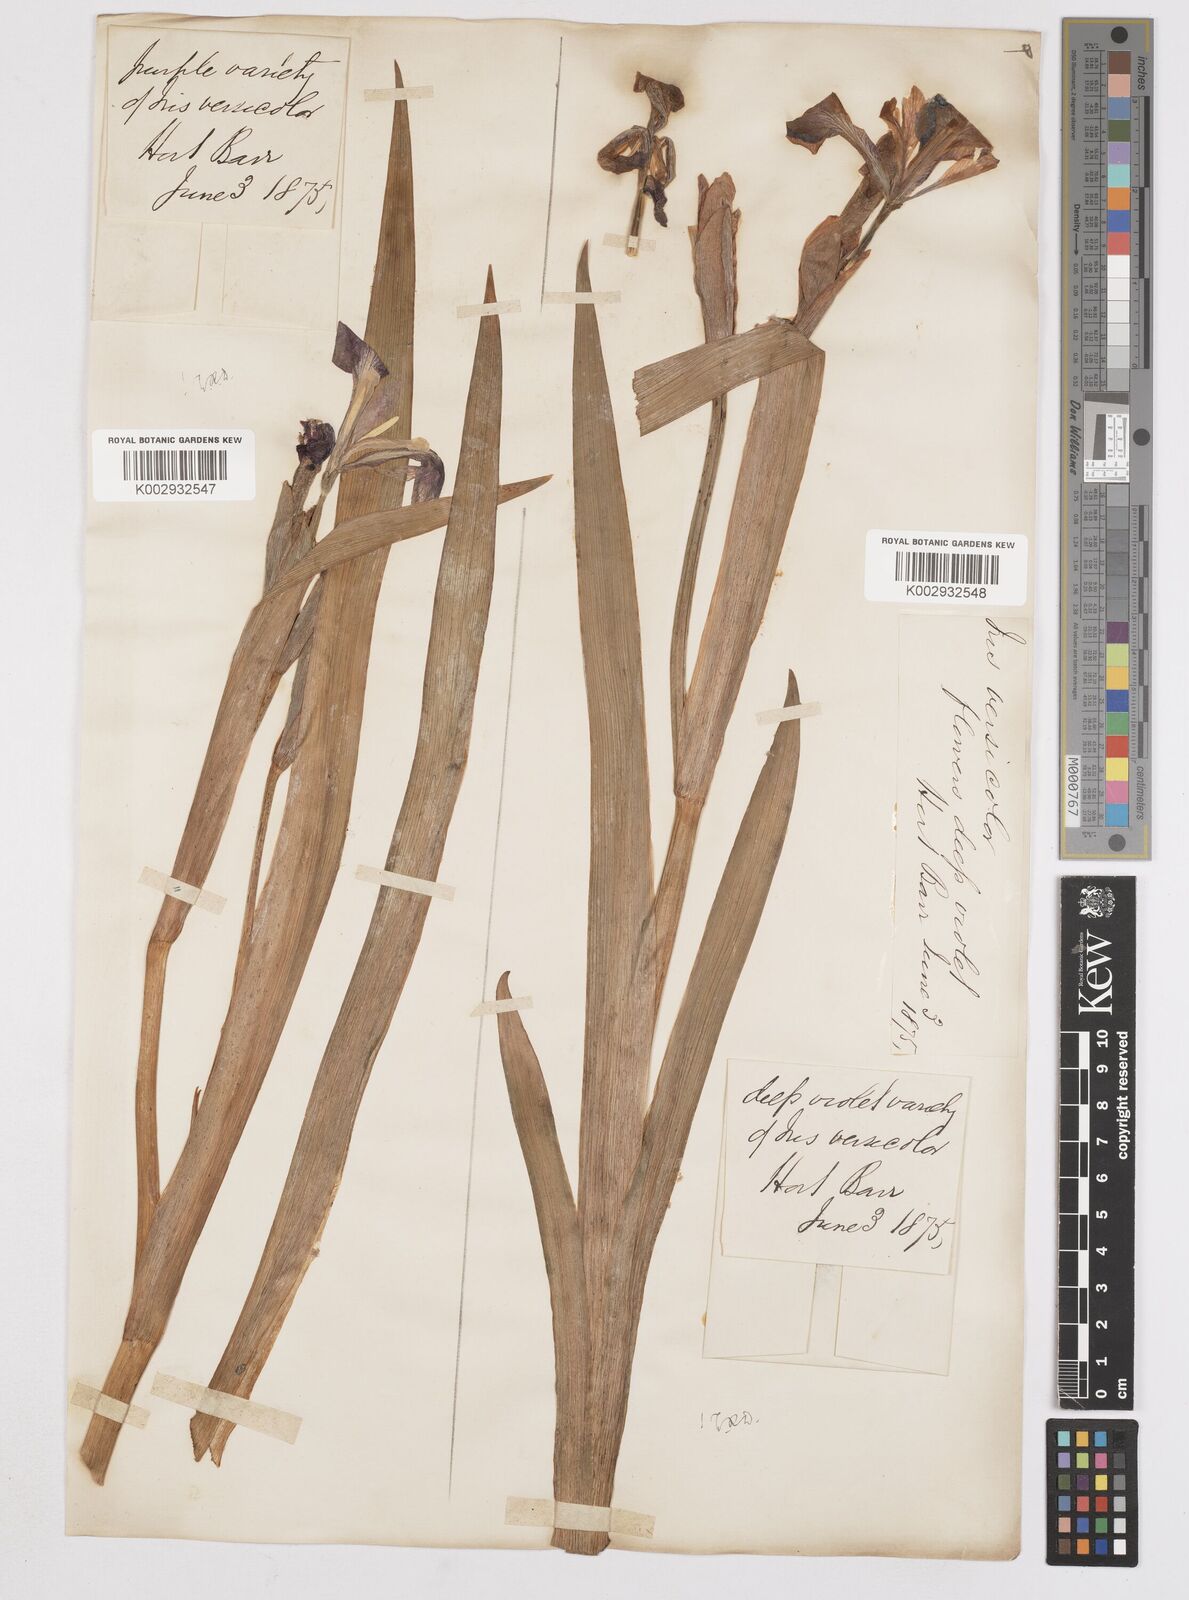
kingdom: Plantae
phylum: Tracheophyta
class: Liliopsida
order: Asparagales
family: Iridaceae
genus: Iris
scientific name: Iris versicolor
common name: Purple iris
